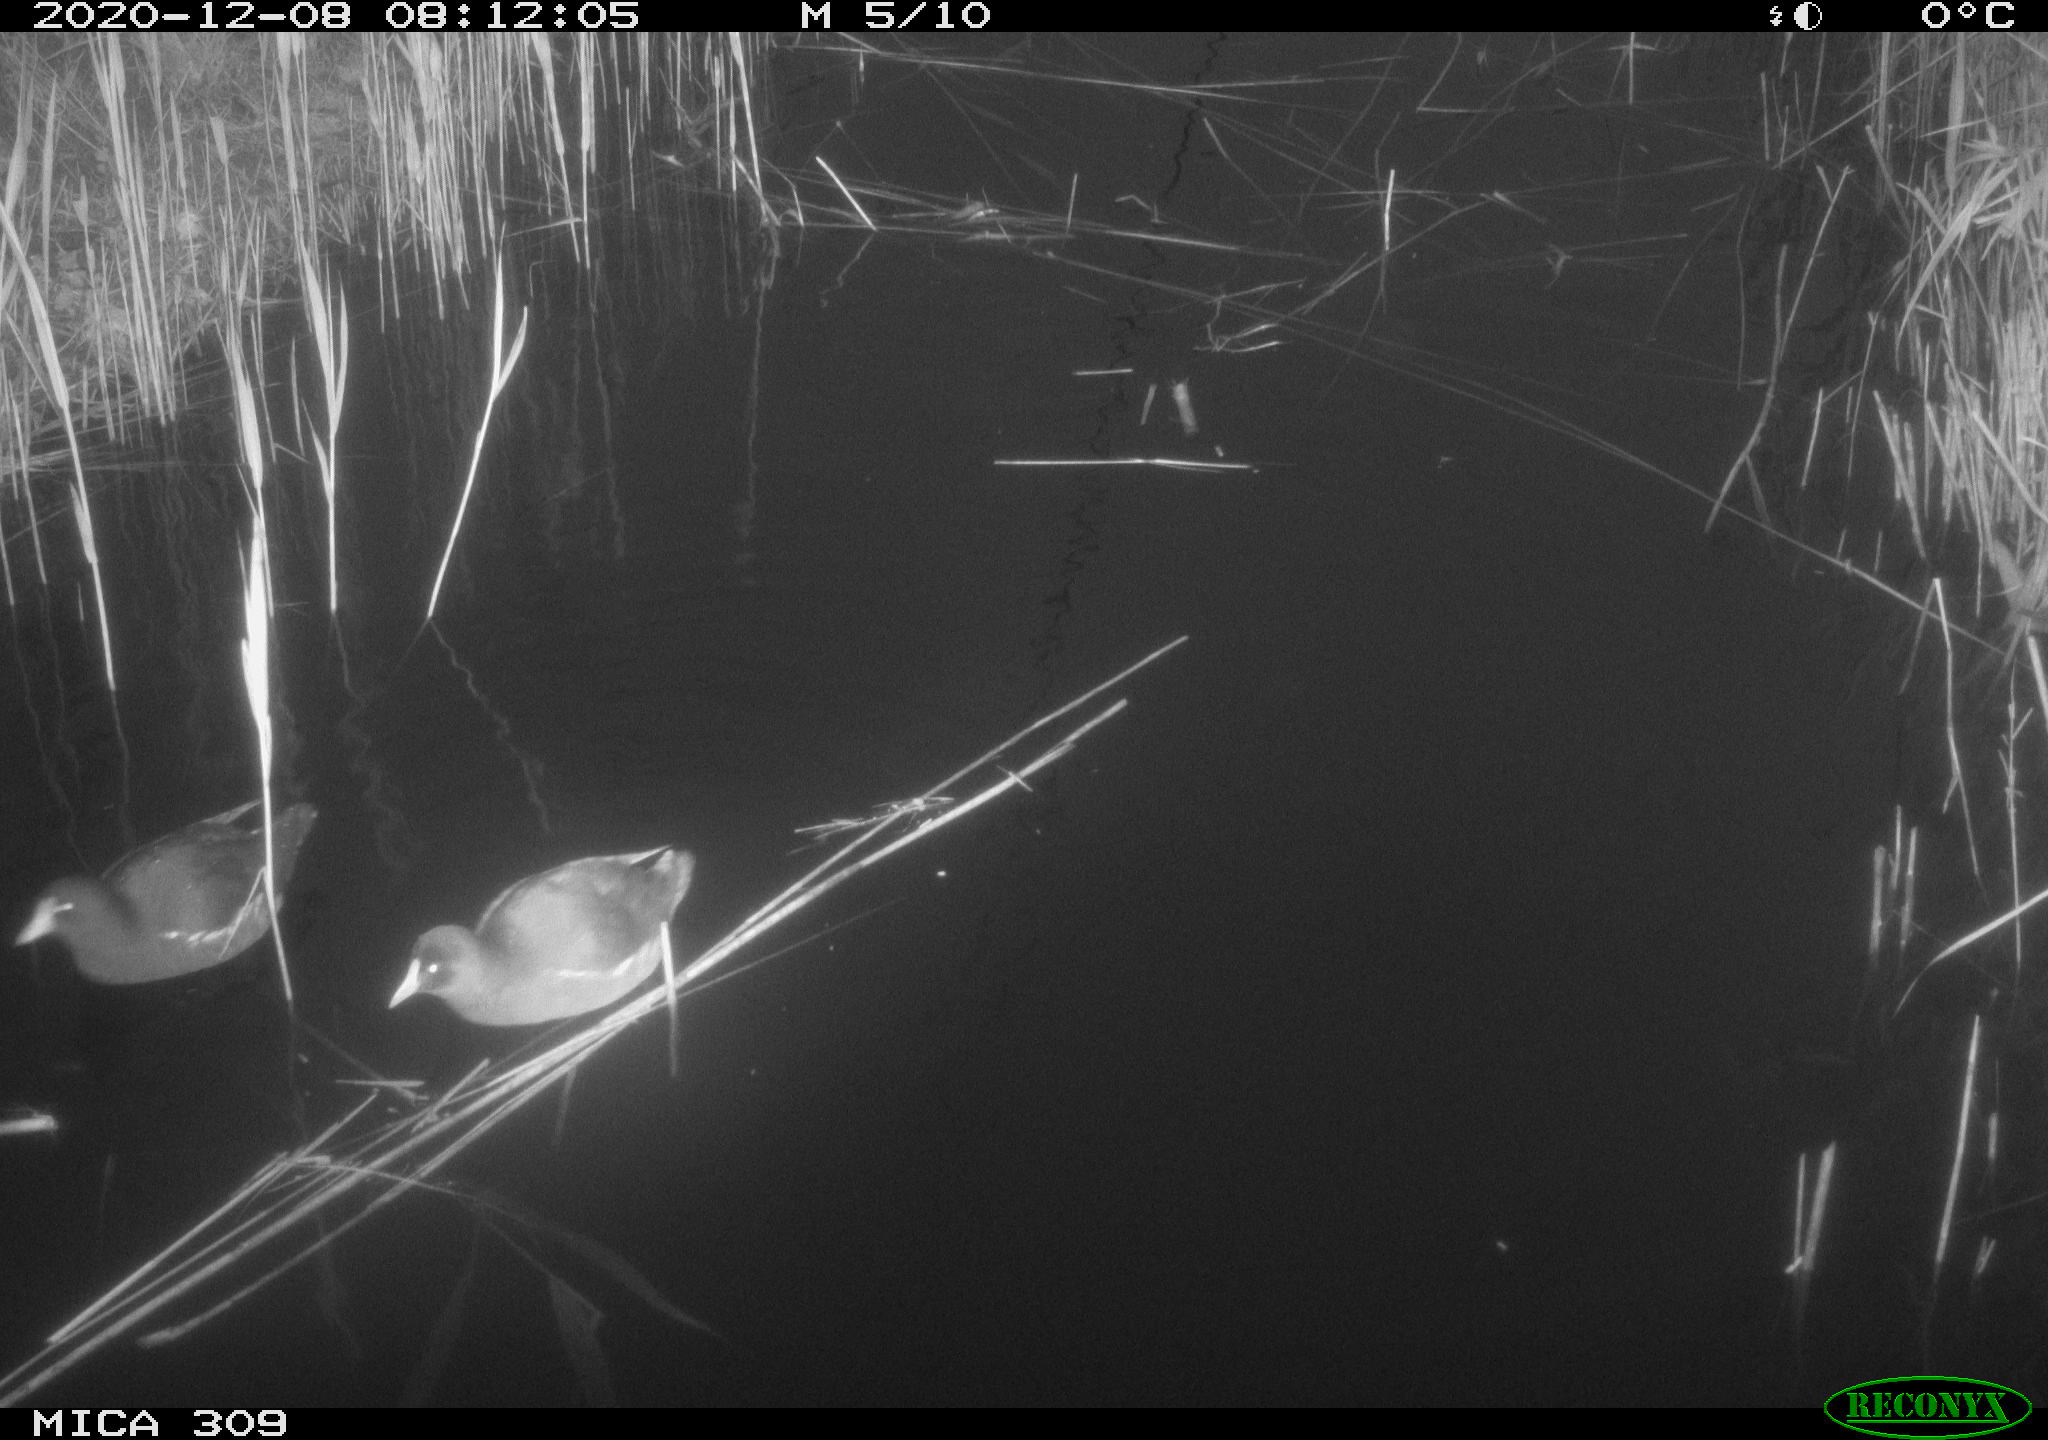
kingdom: Animalia
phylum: Chordata
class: Aves
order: Gruiformes
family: Rallidae
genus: Gallinula
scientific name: Gallinula chloropus
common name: Common moorhen
